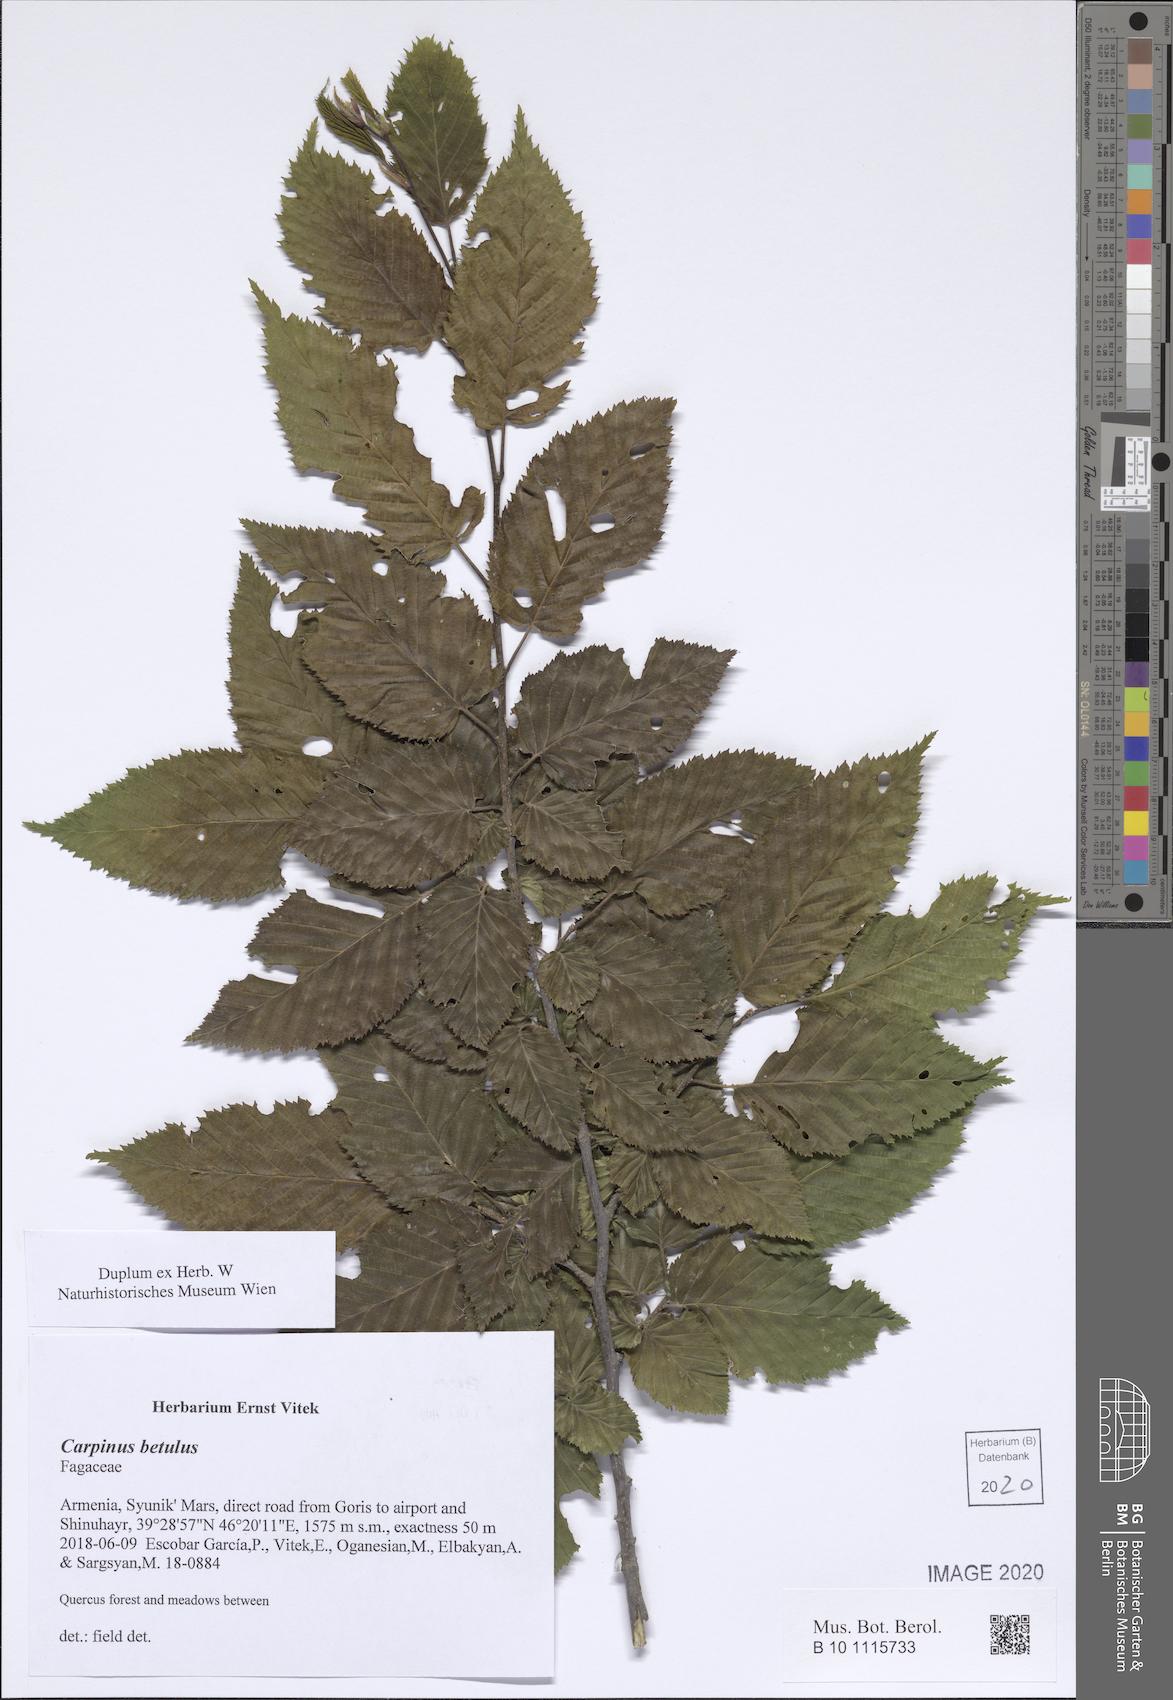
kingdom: Plantae
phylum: Tracheophyta
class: Magnoliopsida
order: Fagales
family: Betulaceae
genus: Carpinus
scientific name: Carpinus betulus
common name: Hornbeam
